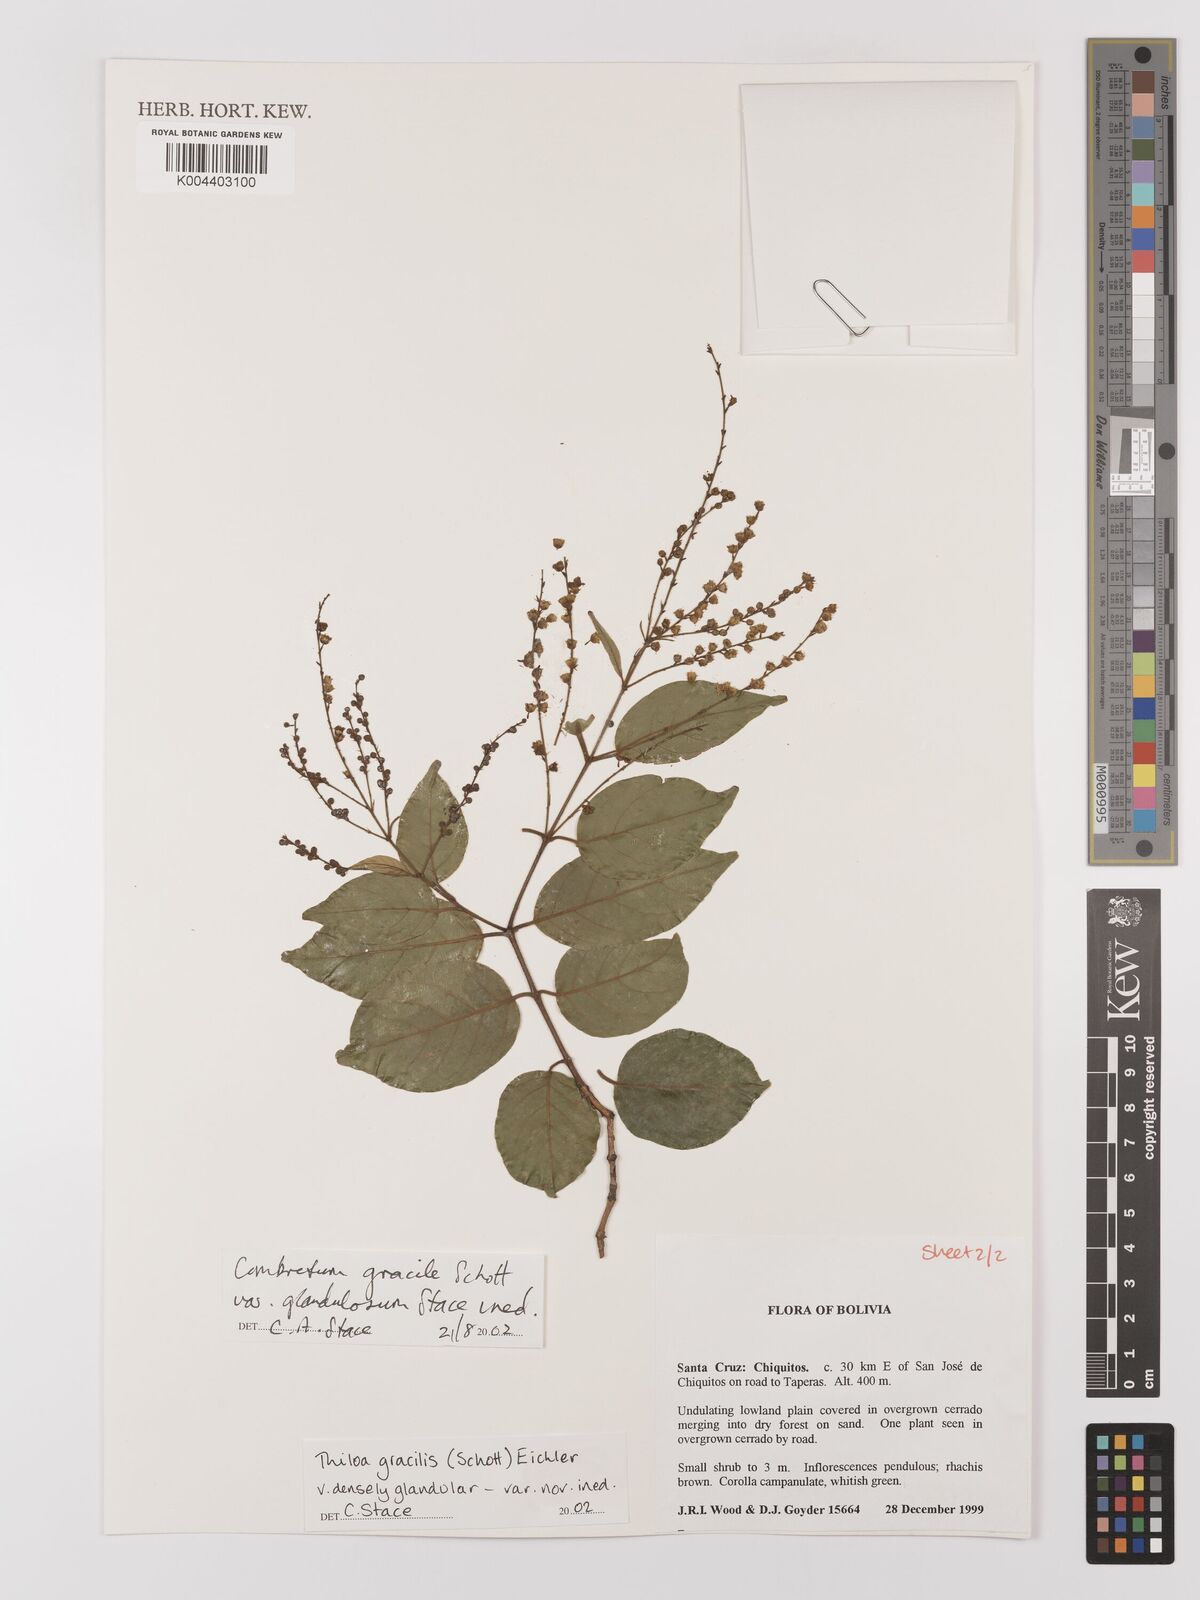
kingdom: Plantae
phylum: Tracheophyta
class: Magnoliopsida
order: Myrtales
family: Combretaceae
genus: Combretum
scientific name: Combretum gracile
